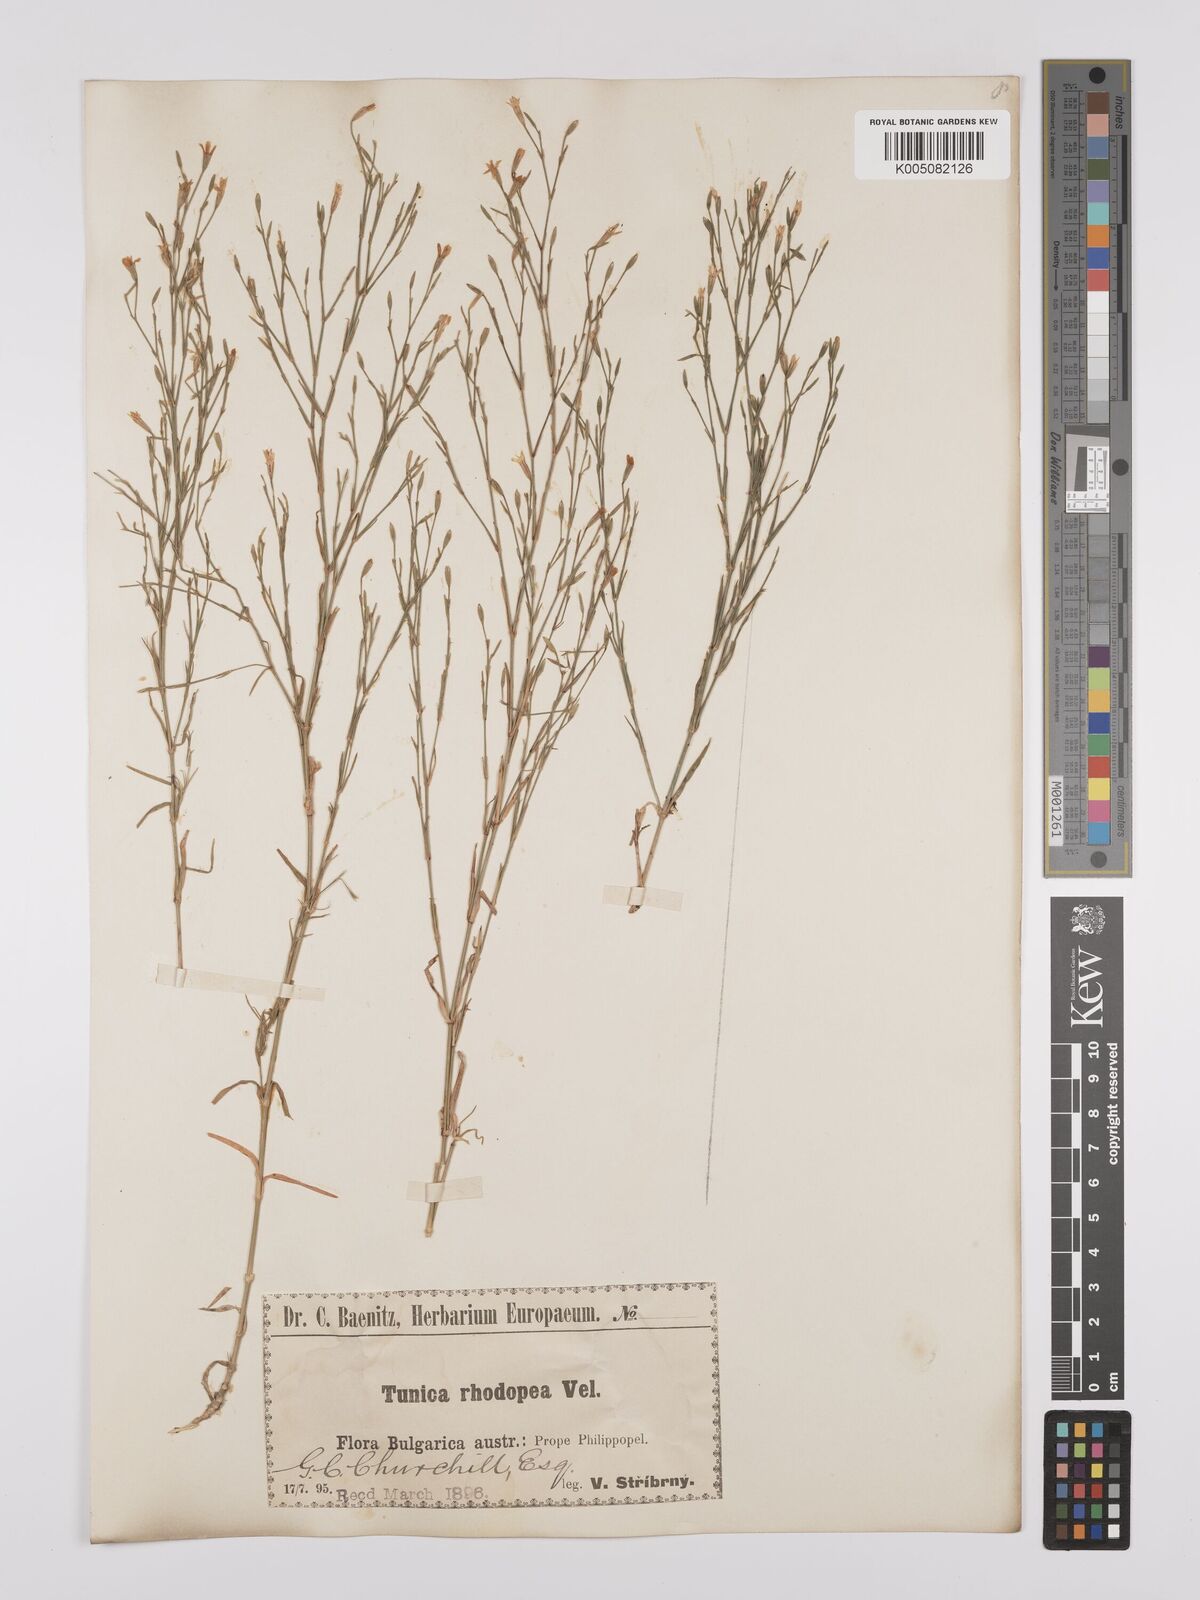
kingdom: Plantae
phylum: Tracheophyta
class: Magnoliopsida
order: Caryophyllales
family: Caryophyllaceae
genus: Dianthus
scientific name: Dianthus illyricus
